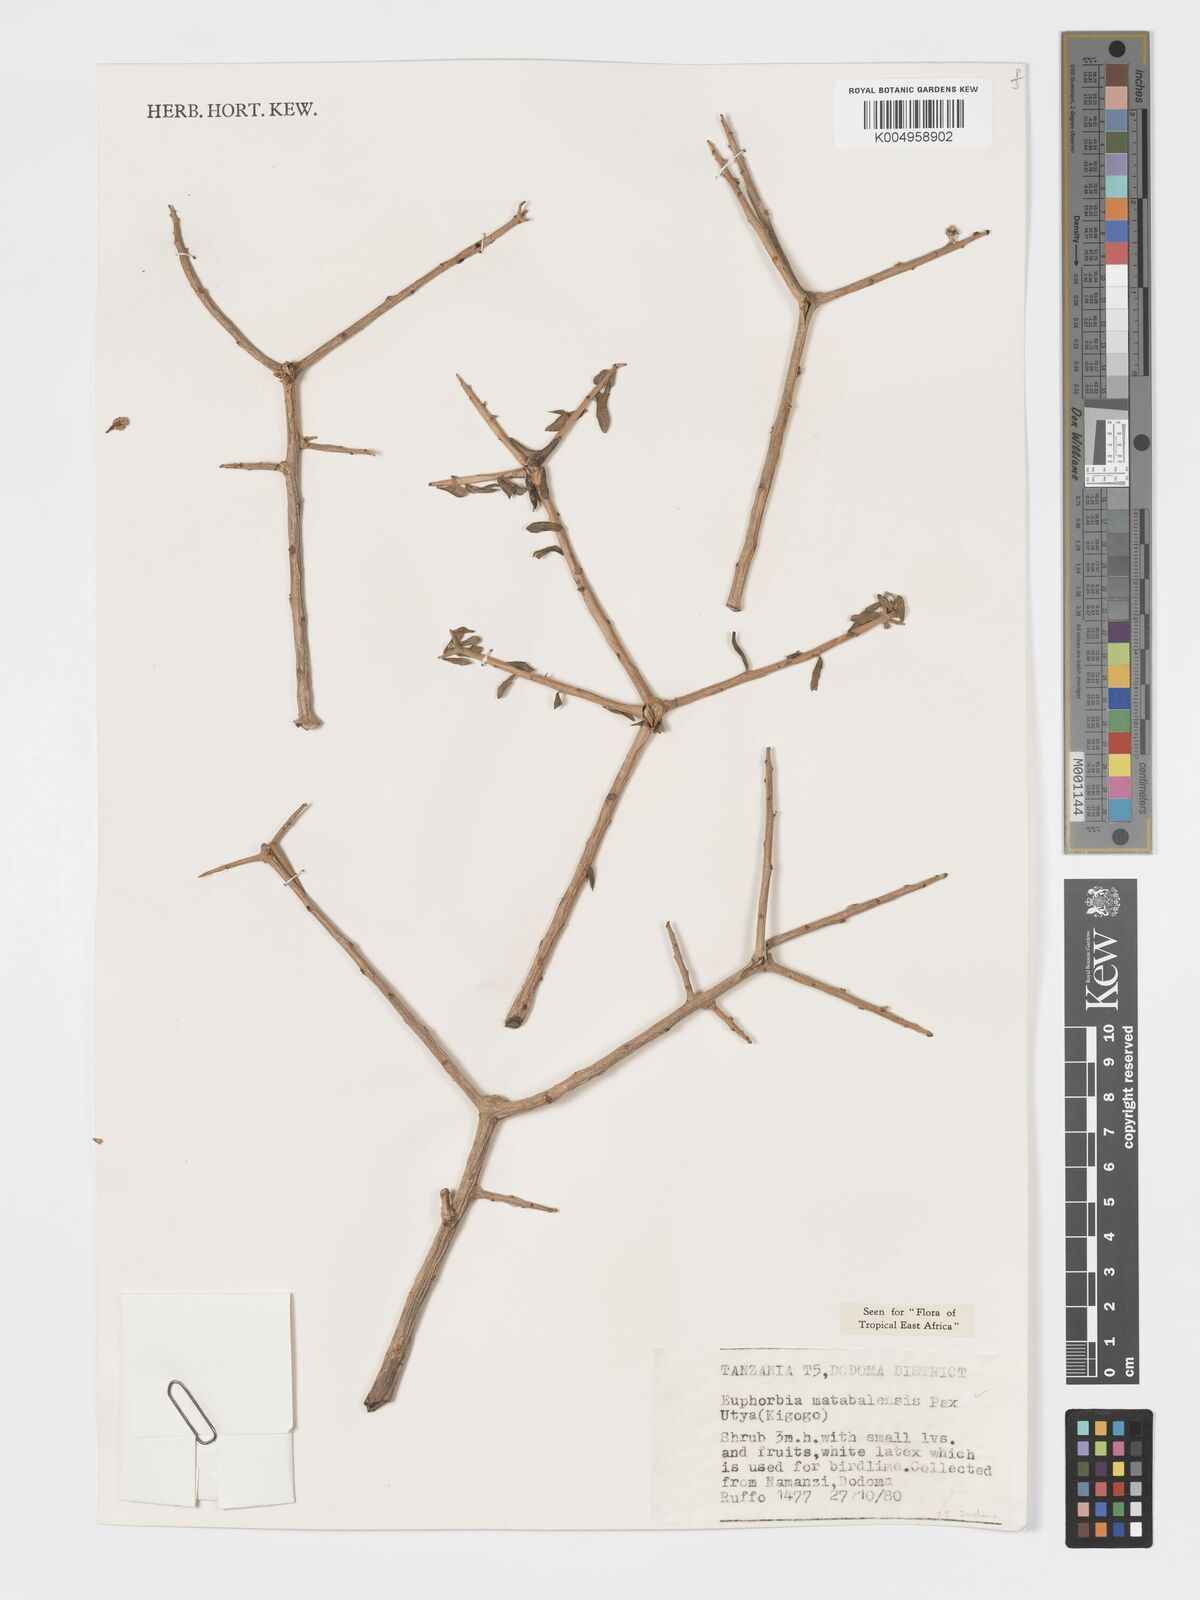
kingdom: Plantae
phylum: Tracheophyta
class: Magnoliopsida
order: Malpighiales
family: Euphorbiaceae
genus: Euphorbia
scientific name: Euphorbia matabelensis
